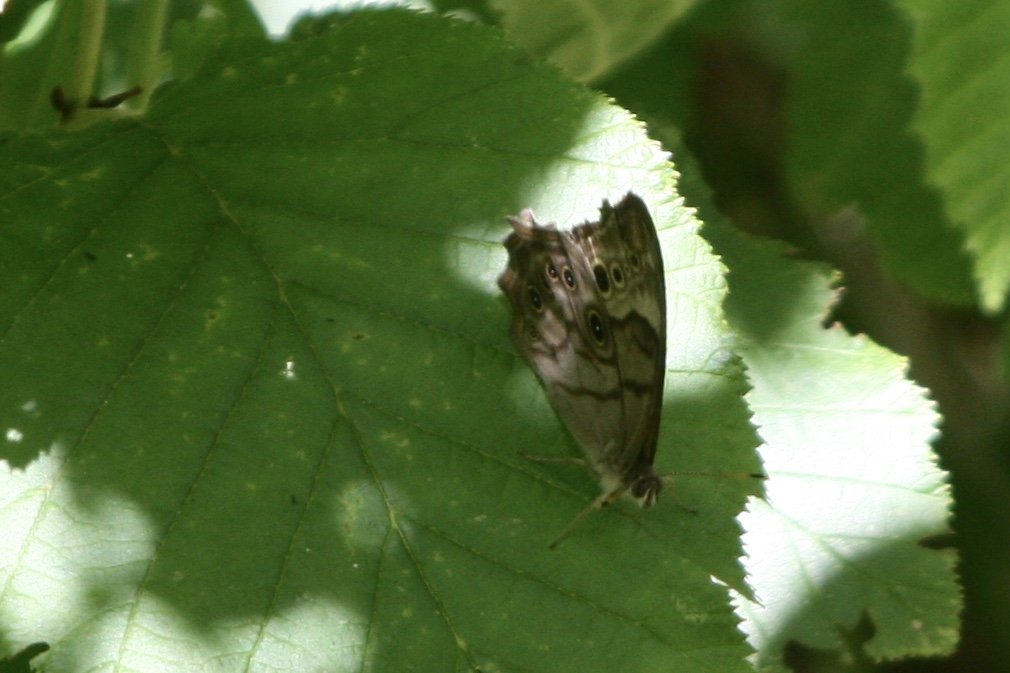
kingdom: Animalia
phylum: Arthropoda
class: Insecta
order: Lepidoptera
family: Nymphalidae
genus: Lethe
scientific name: Lethe anthedon
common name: Northern Pearly-Eye
